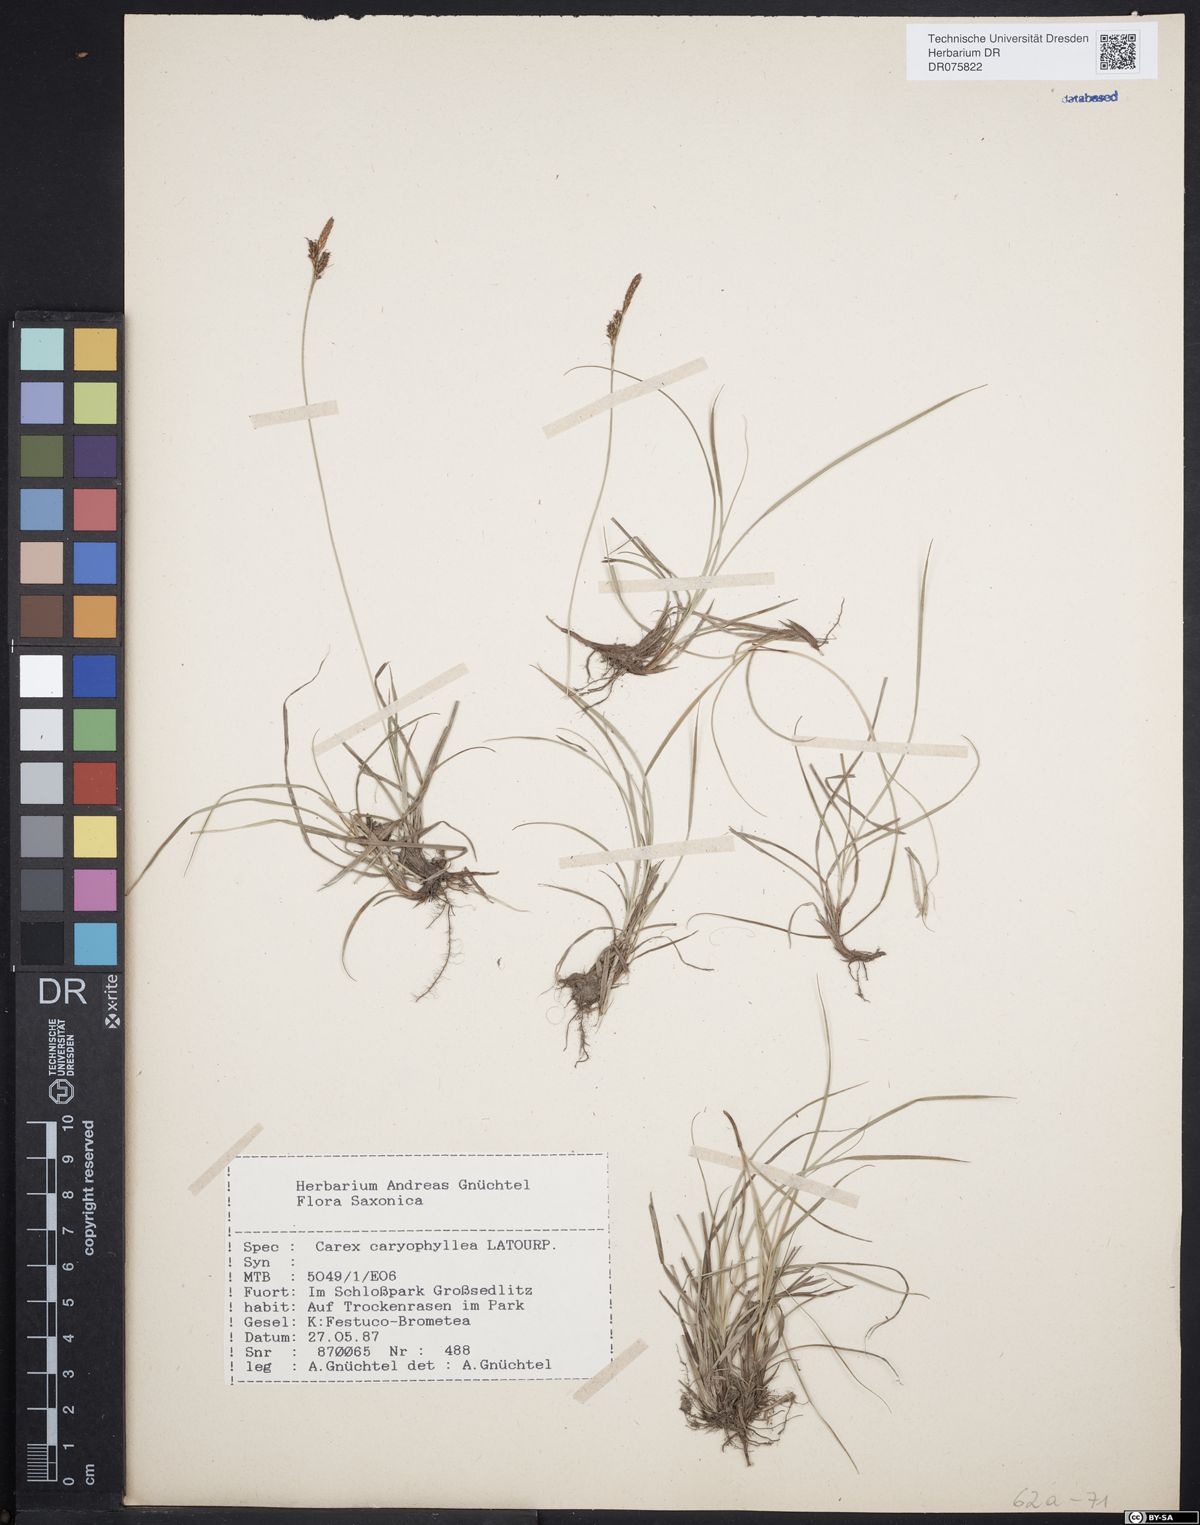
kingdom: Plantae
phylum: Tracheophyta
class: Liliopsida
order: Poales
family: Cyperaceae
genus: Carex
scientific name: Carex caryophyllea
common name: Spring sedge
